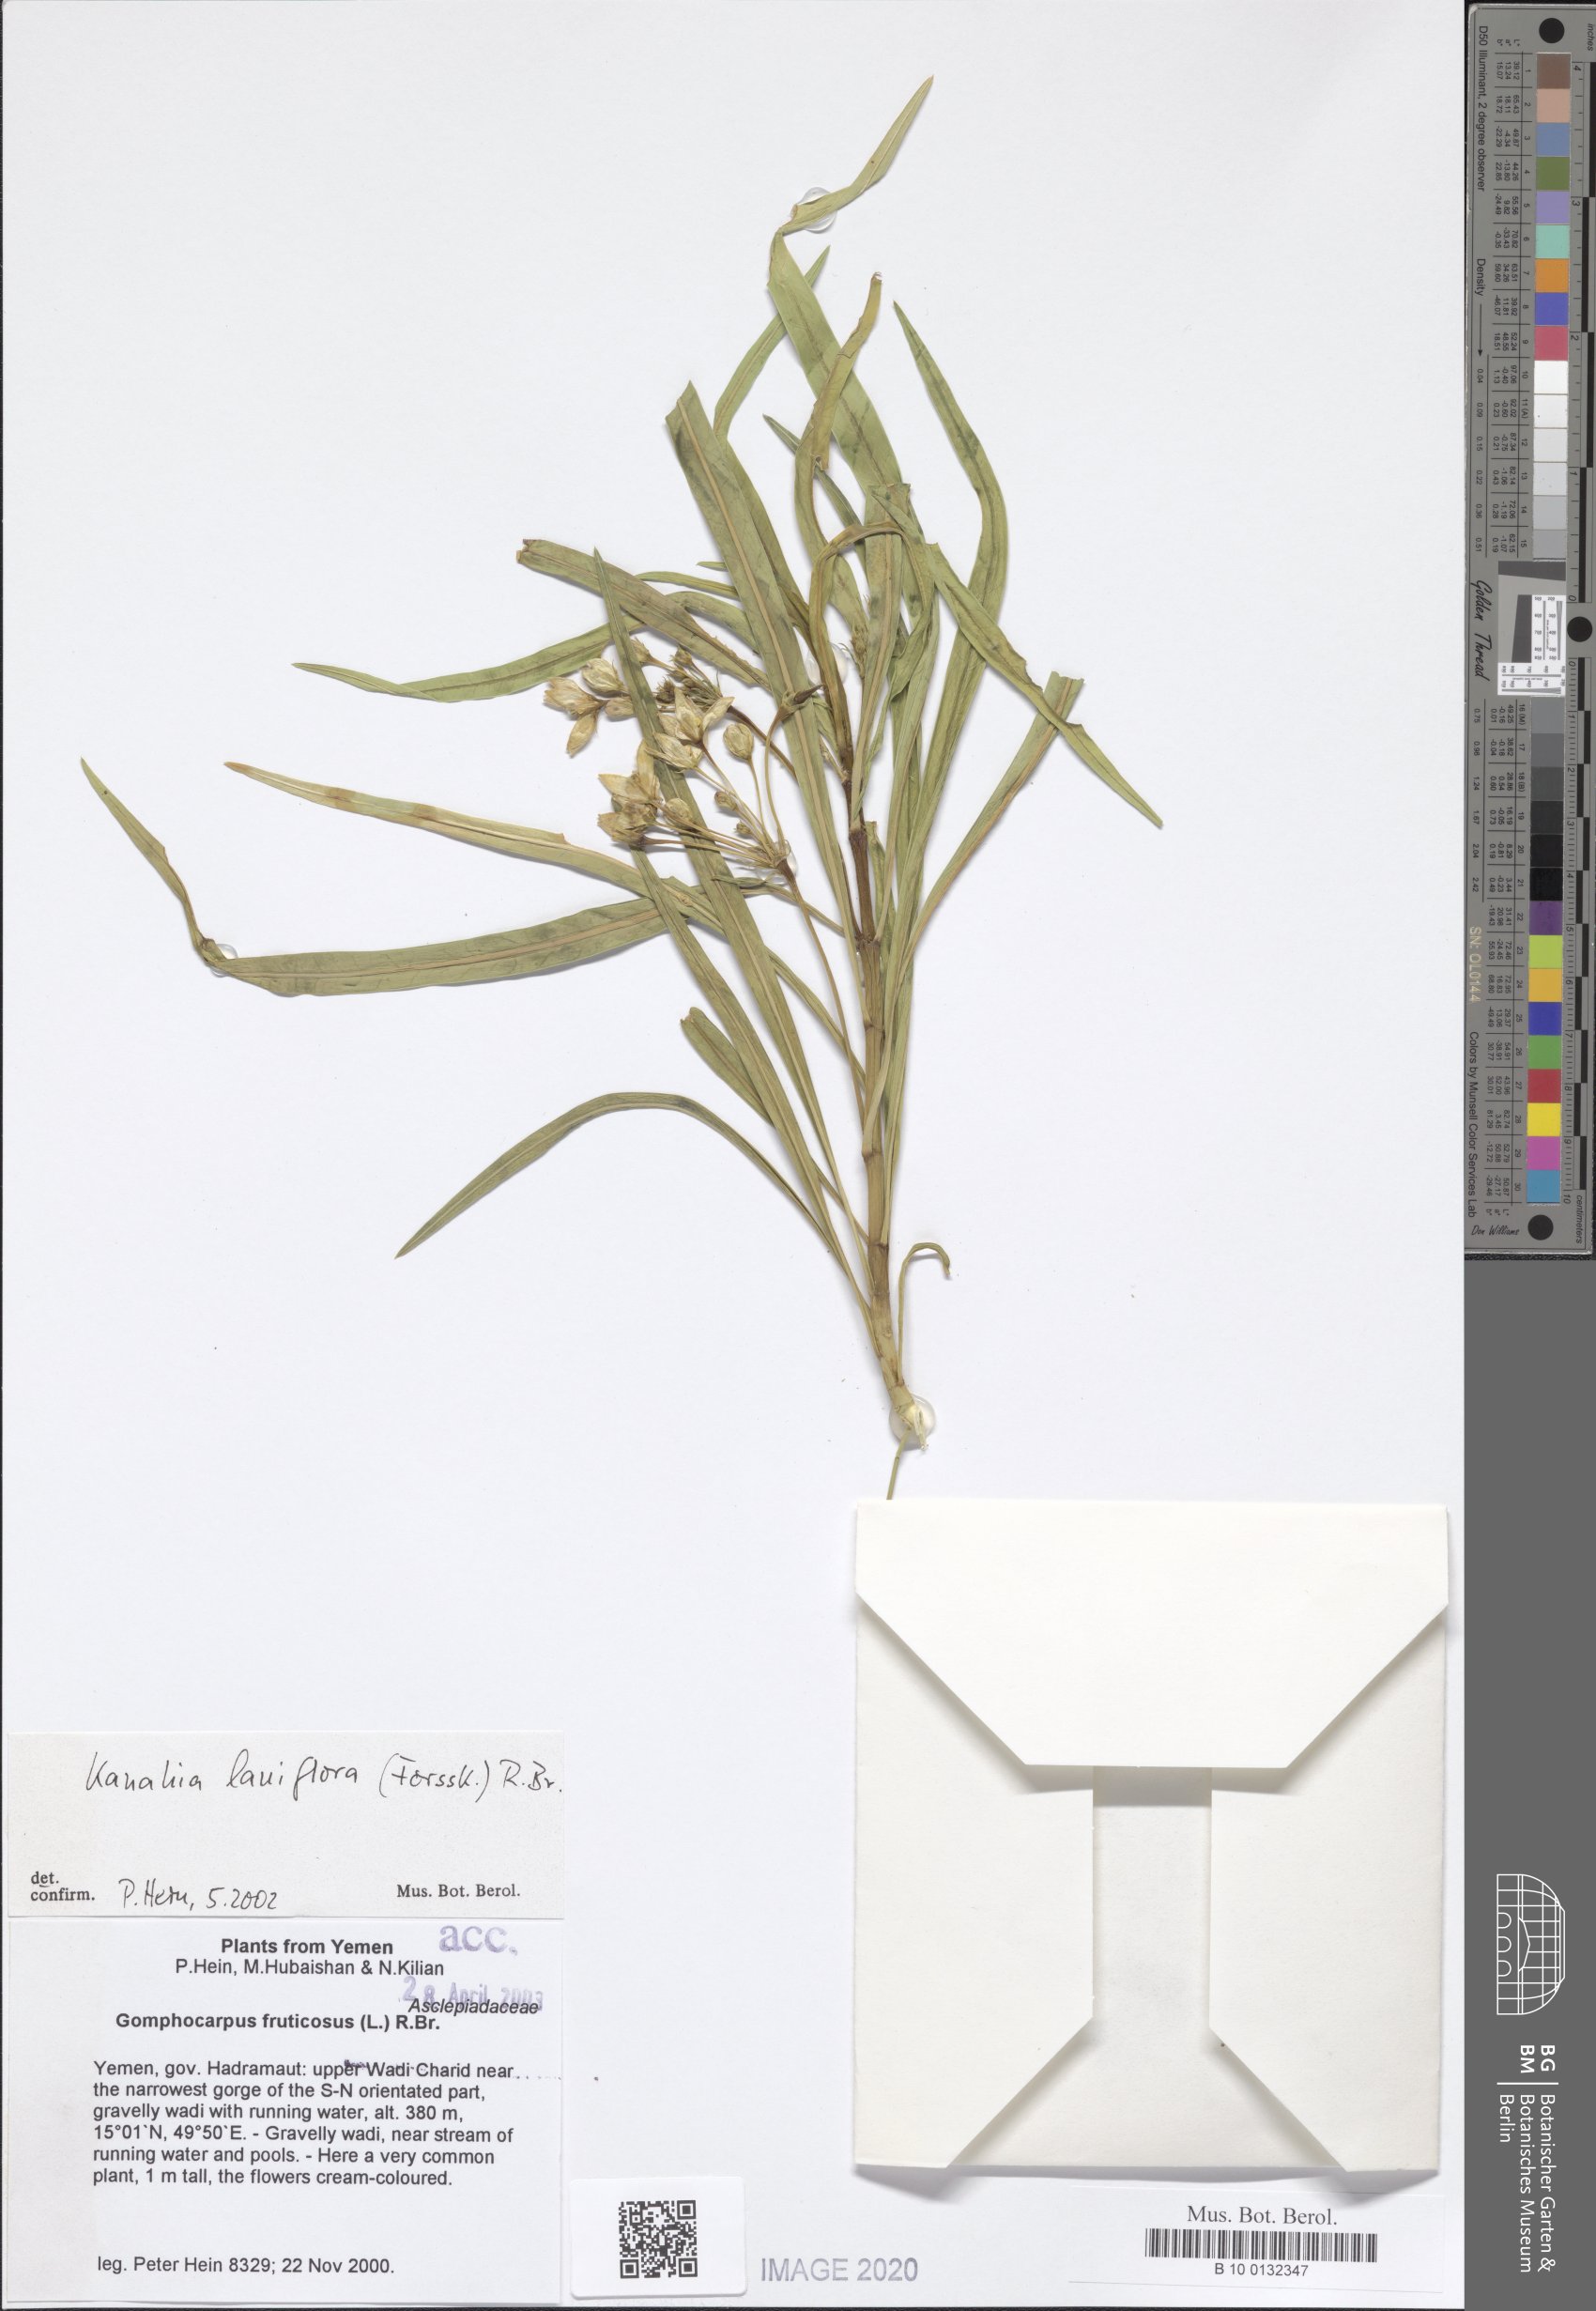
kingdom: Plantae
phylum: Tracheophyta
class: Magnoliopsida
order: Gentianales
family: Apocynaceae
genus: Kanahia
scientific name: Kanahia laniflora
